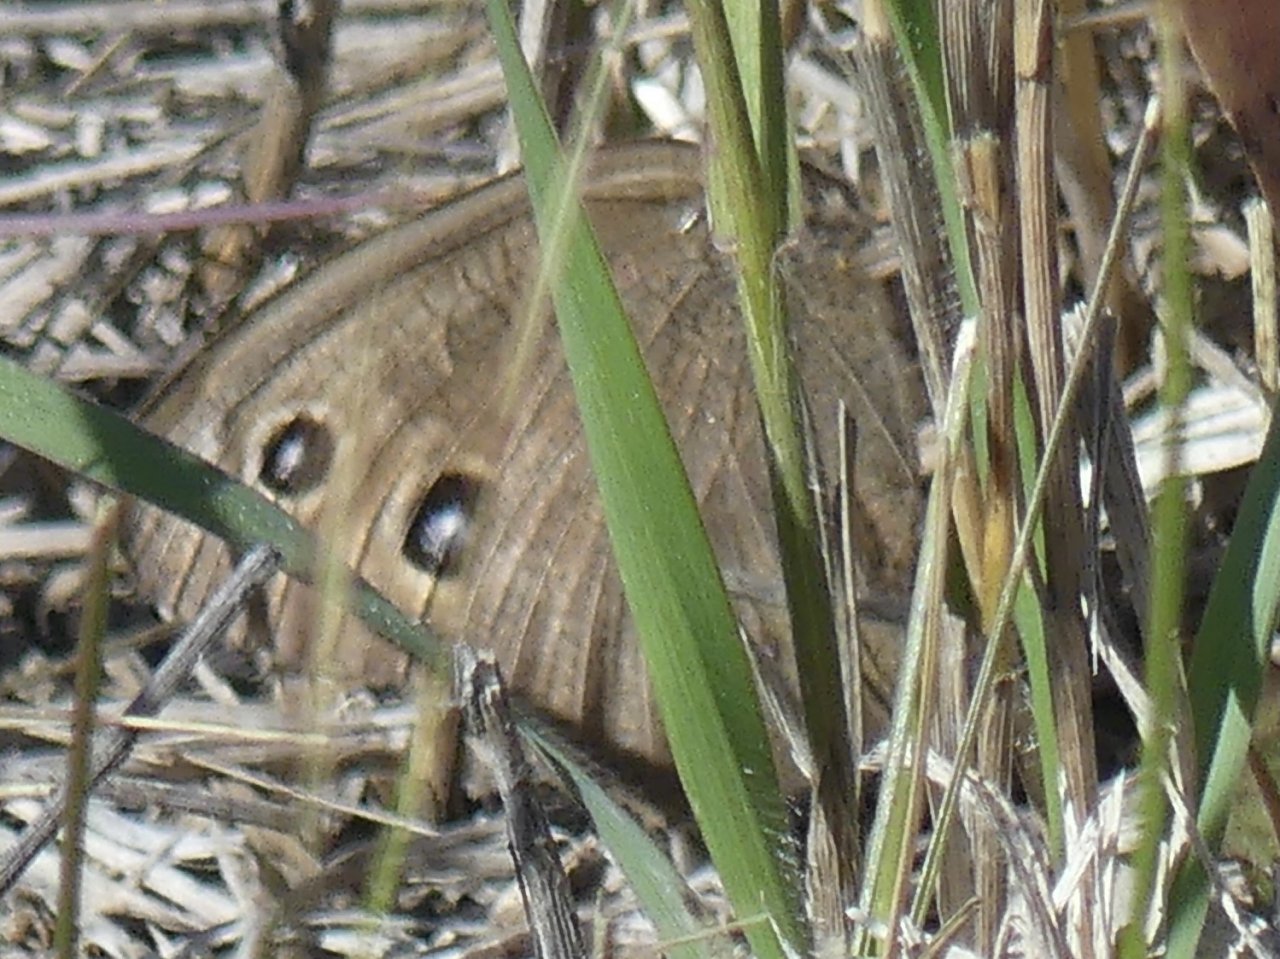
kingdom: Animalia
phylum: Arthropoda
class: Insecta
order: Lepidoptera
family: Nymphalidae
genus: Cercyonis
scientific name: Cercyonis pegala
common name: Common Wood-Nymph
